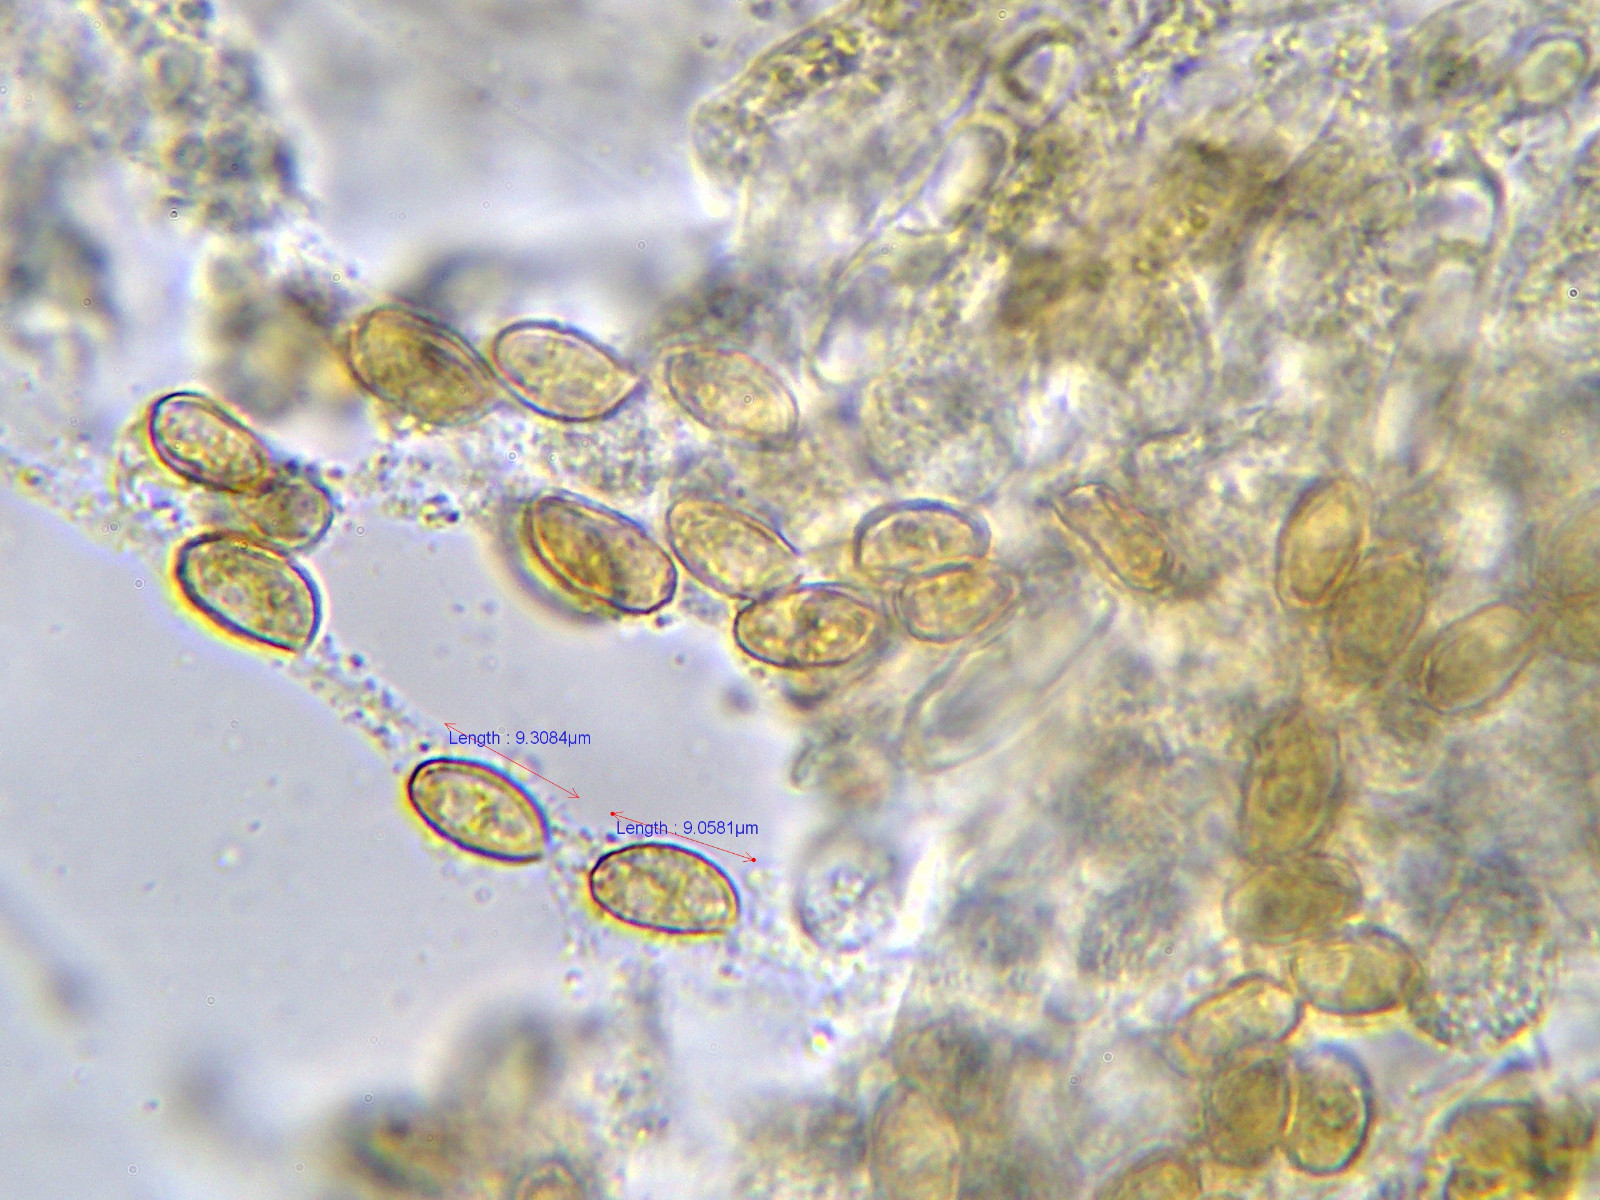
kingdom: Fungi
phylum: Basidiomycota
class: Agaricomycetes
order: Agaricales
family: Cortinariaceae
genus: Cortinarius
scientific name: Cortinarius griseocarneus
